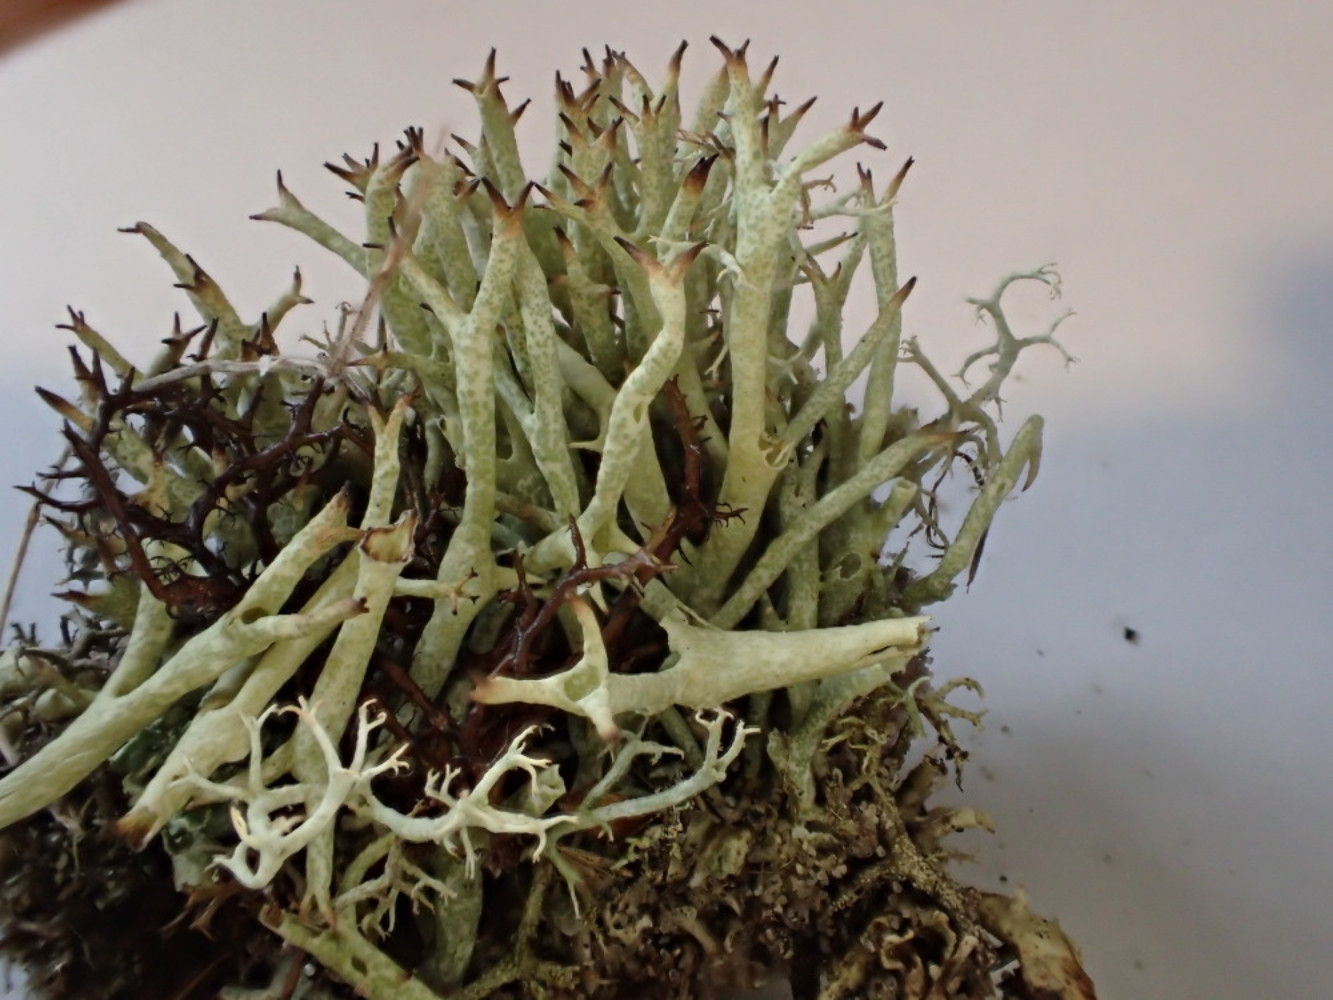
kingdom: Fungi
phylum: Ascomycota
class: Lecanoromycetes
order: Lecanorales
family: Cladoniaceae
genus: Cladonia
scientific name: Cladonia uncialis
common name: pigget bægerlav
